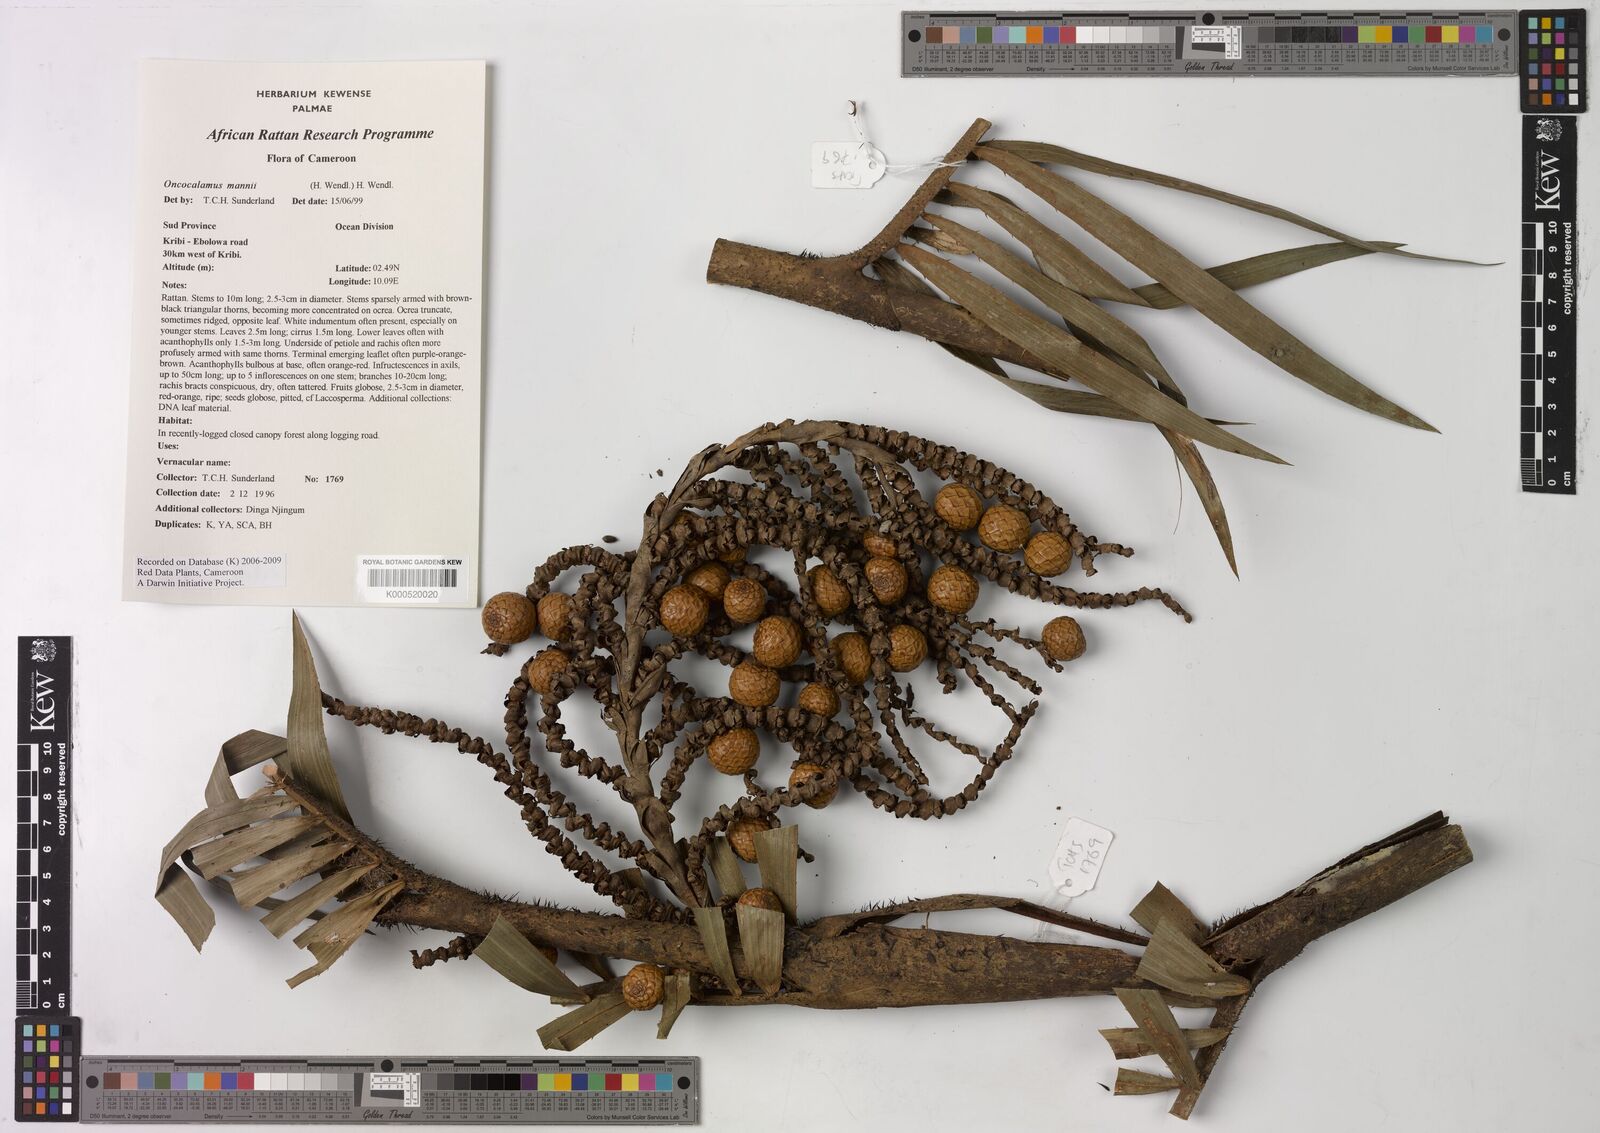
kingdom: Plantae
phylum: Tracheophyta
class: Liliopsida
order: Arecales
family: Arecaceae
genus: Oncocalamus
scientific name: Oncocalamus mannii
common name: Rattan
